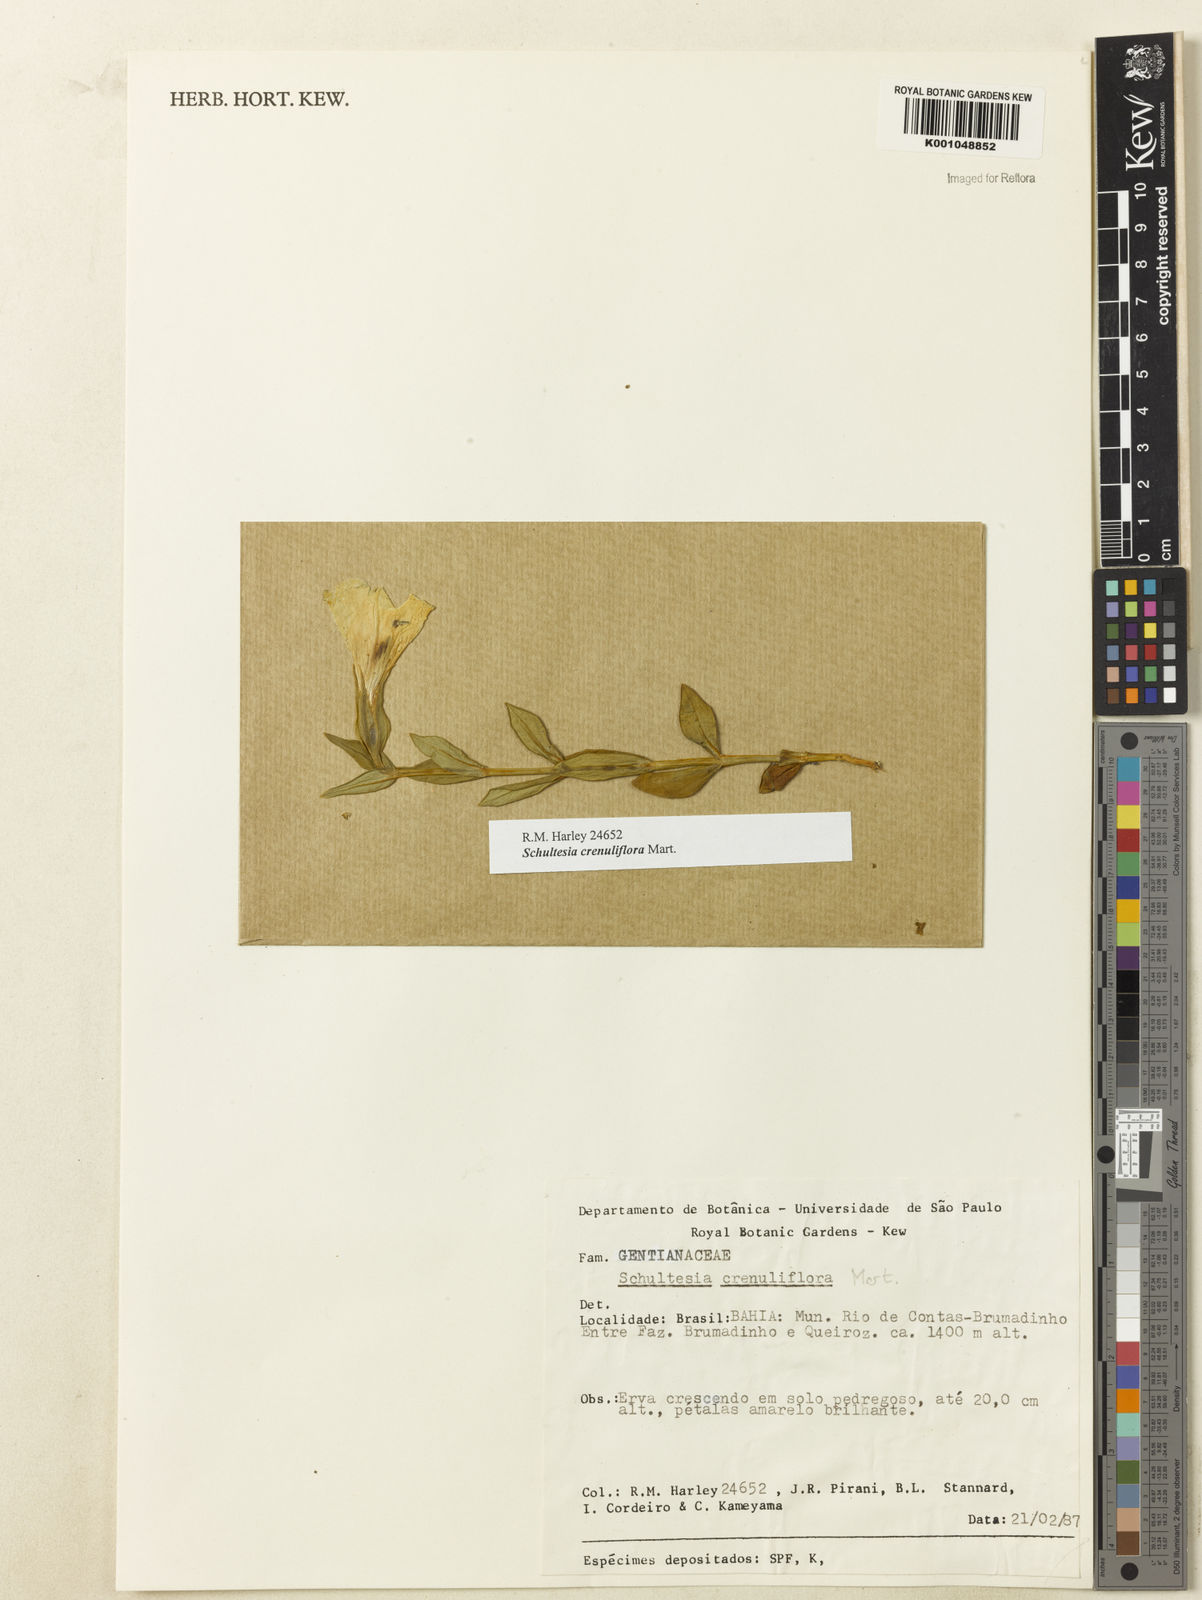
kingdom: Plantae
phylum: Tracheophyta
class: Magnoliopsida
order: Gentianales
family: Gentianaceae
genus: Schultesia
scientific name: Schultesia crenuliflora
